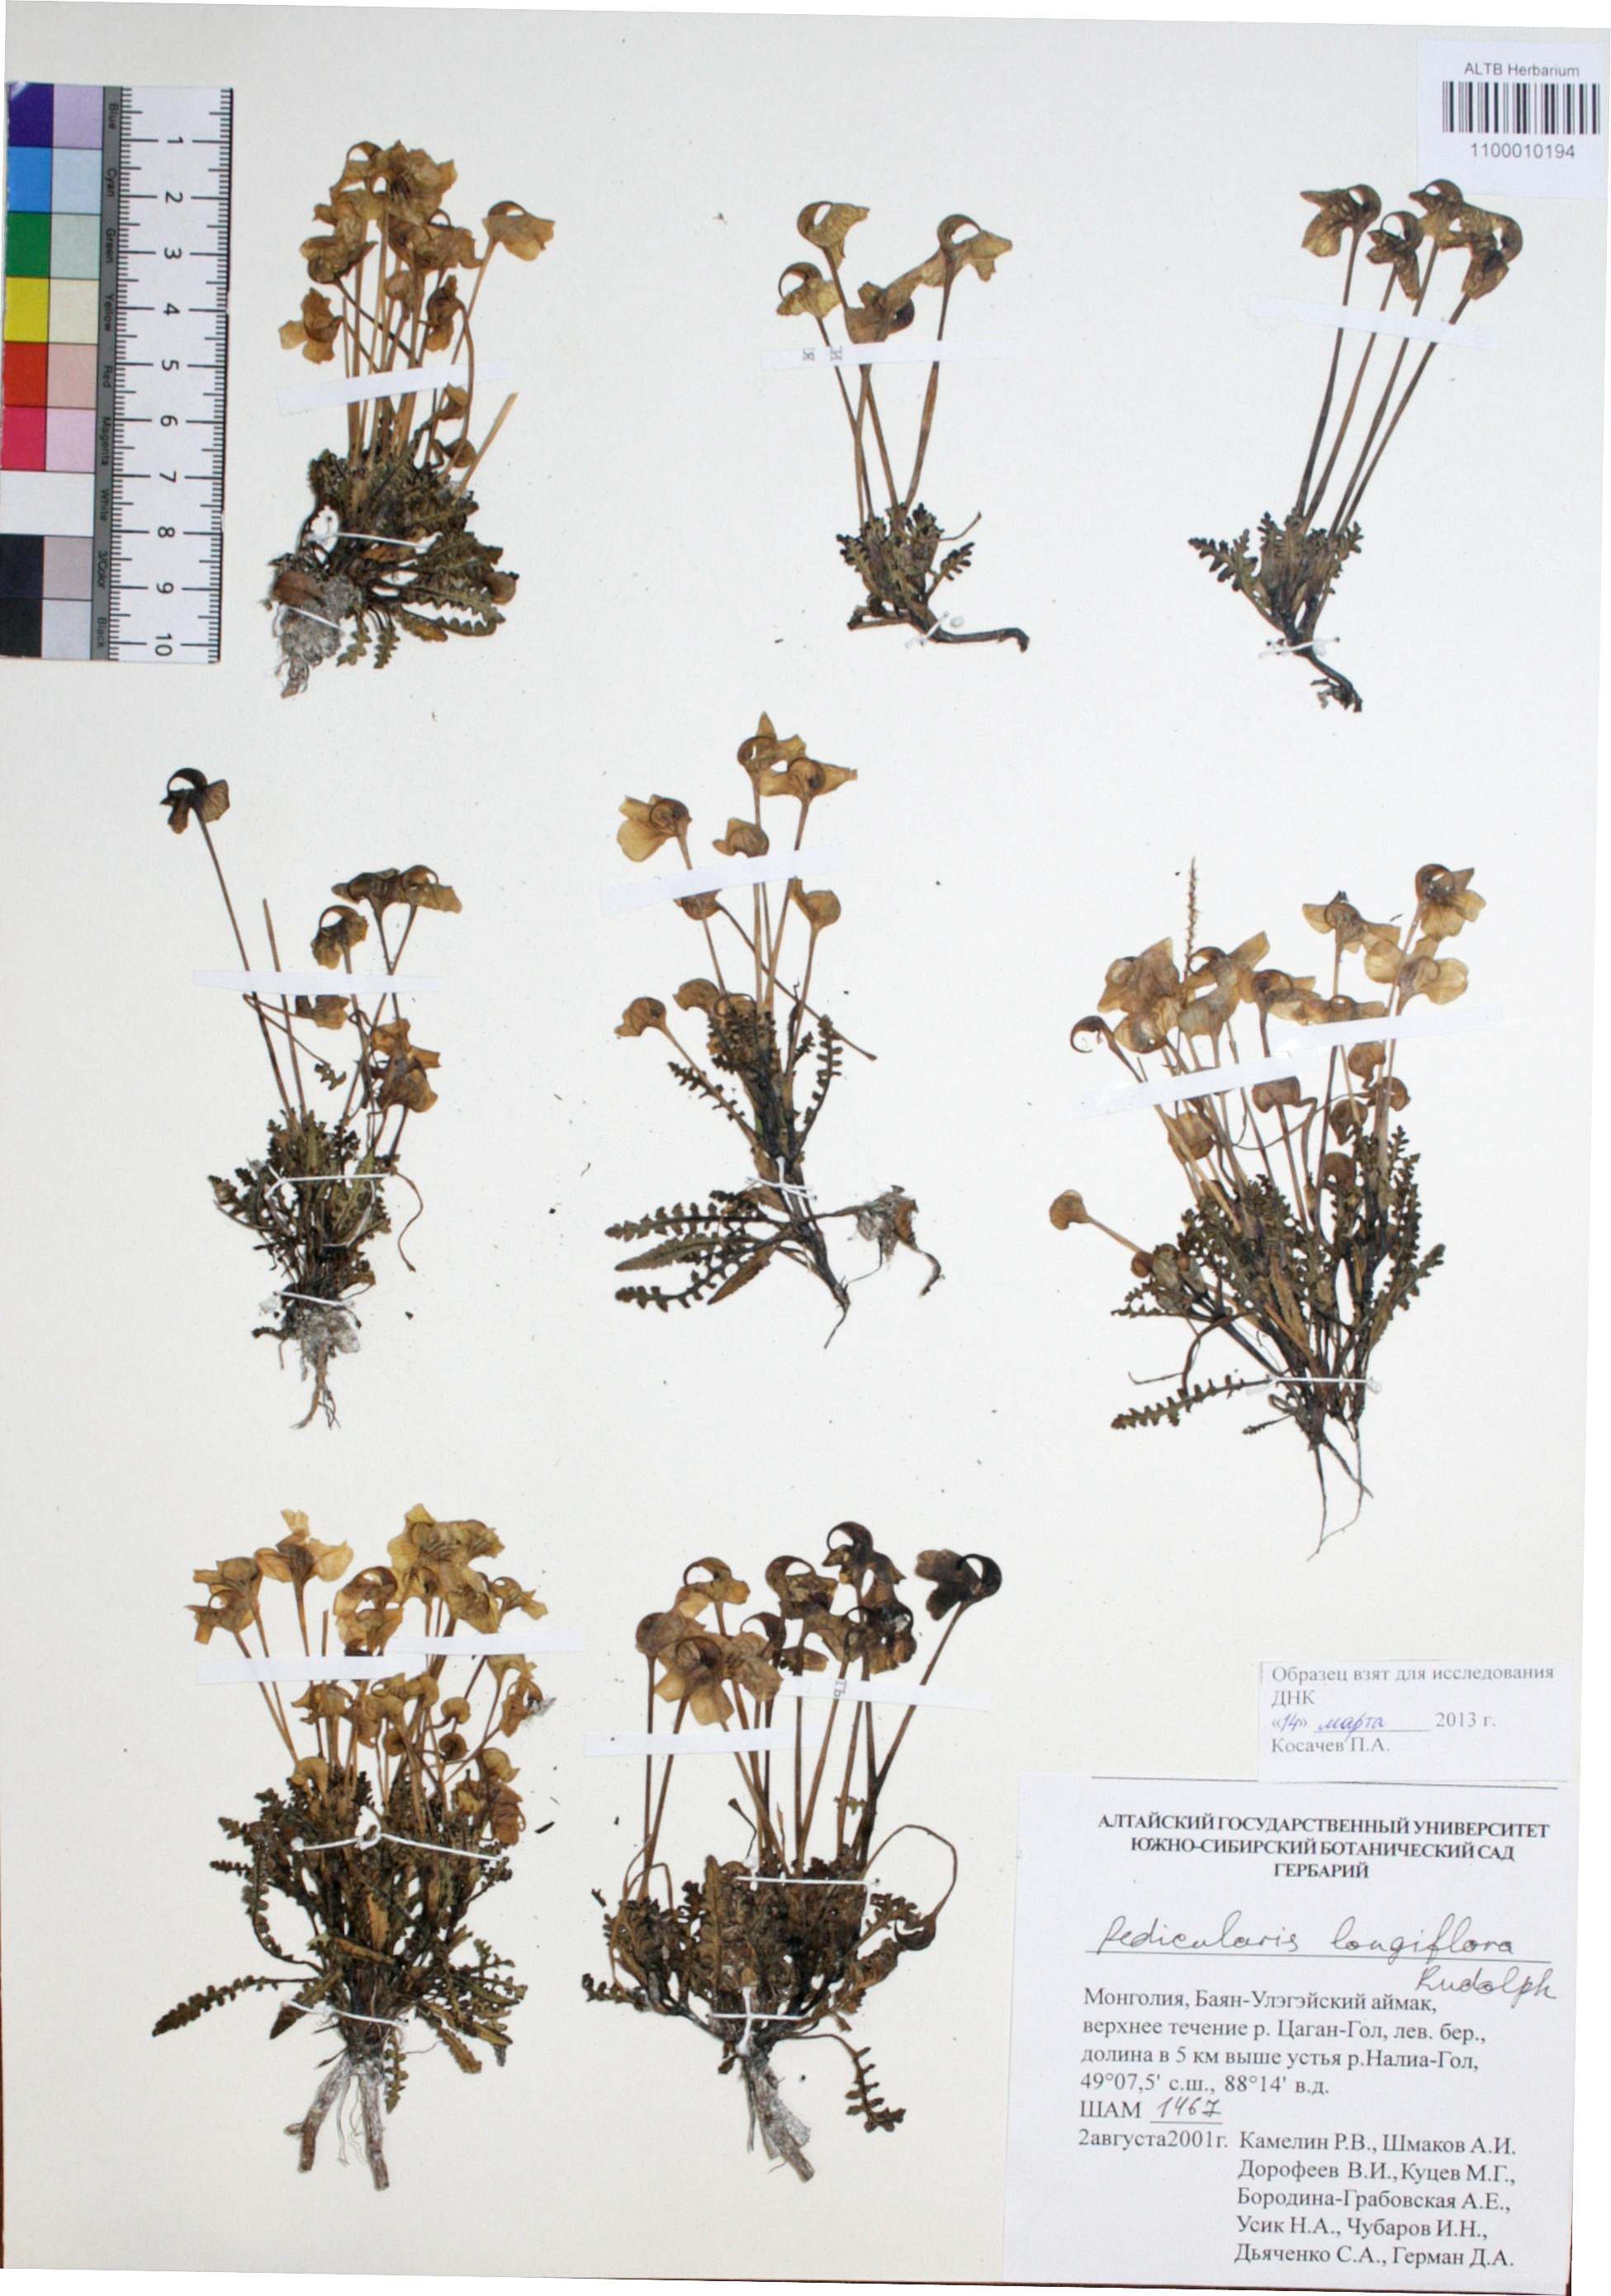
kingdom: Plantae
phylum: Tracheophyta
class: Magnoliopsida
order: Lamiales
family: Orobanchaceae
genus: Pedicularis
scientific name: Pedicularis longiflora
